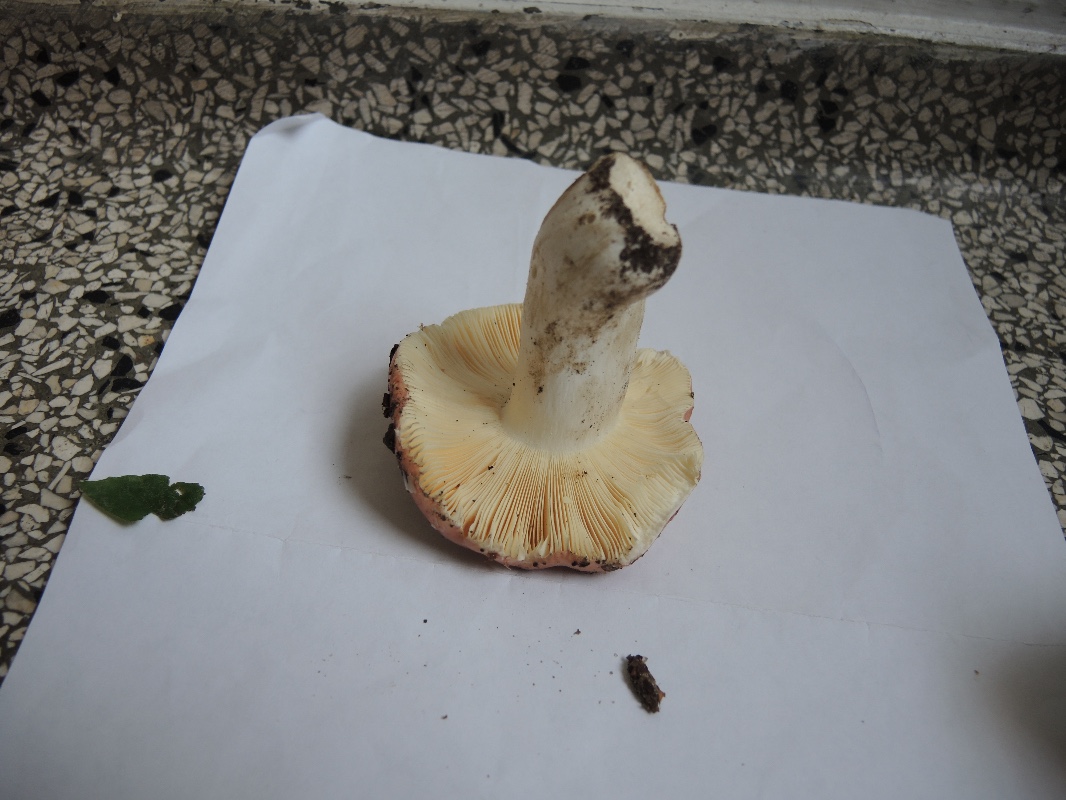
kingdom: Fungi
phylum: Basidiomycota
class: Agaricomycetes
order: Russulales
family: Russulaceae
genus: Russula
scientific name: Russula veternosa
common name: blødkødet skørhat
